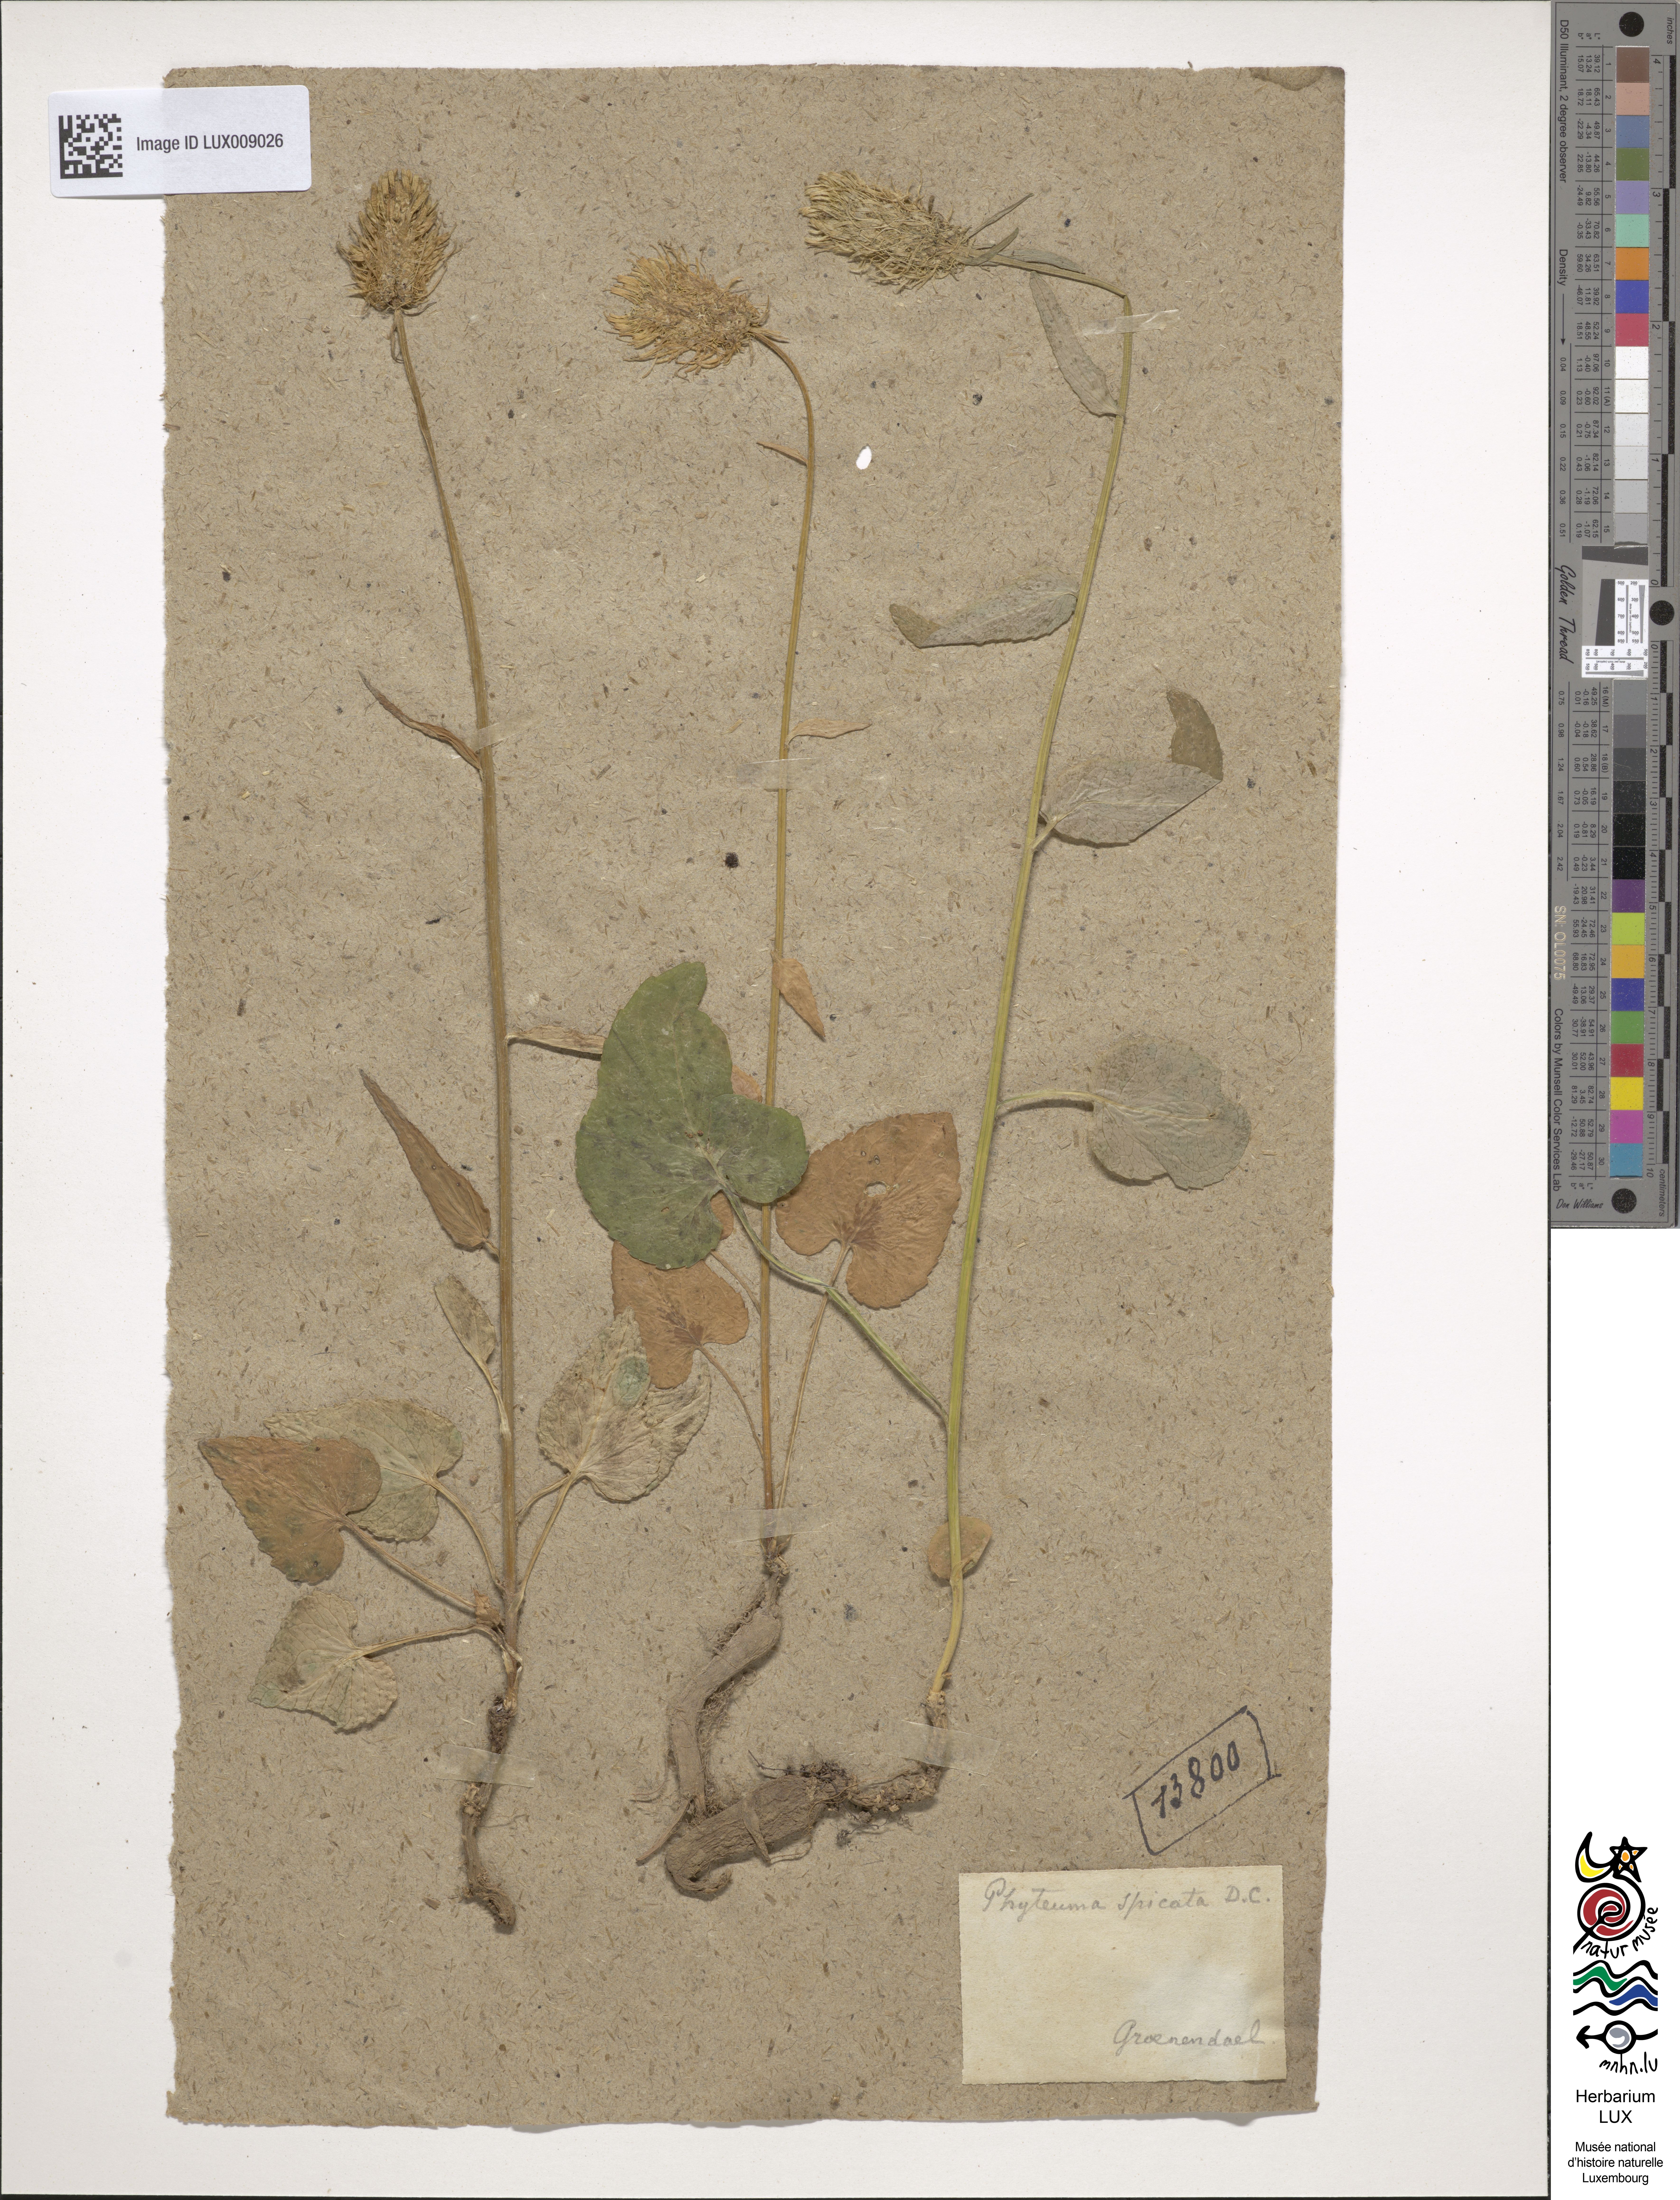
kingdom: Plantae
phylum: Tracheophyta
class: Magnoliopsida
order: Asterales
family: Campanulaceae
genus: Phyteuma
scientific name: Phyteuma spicatum
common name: Spiked rampion
